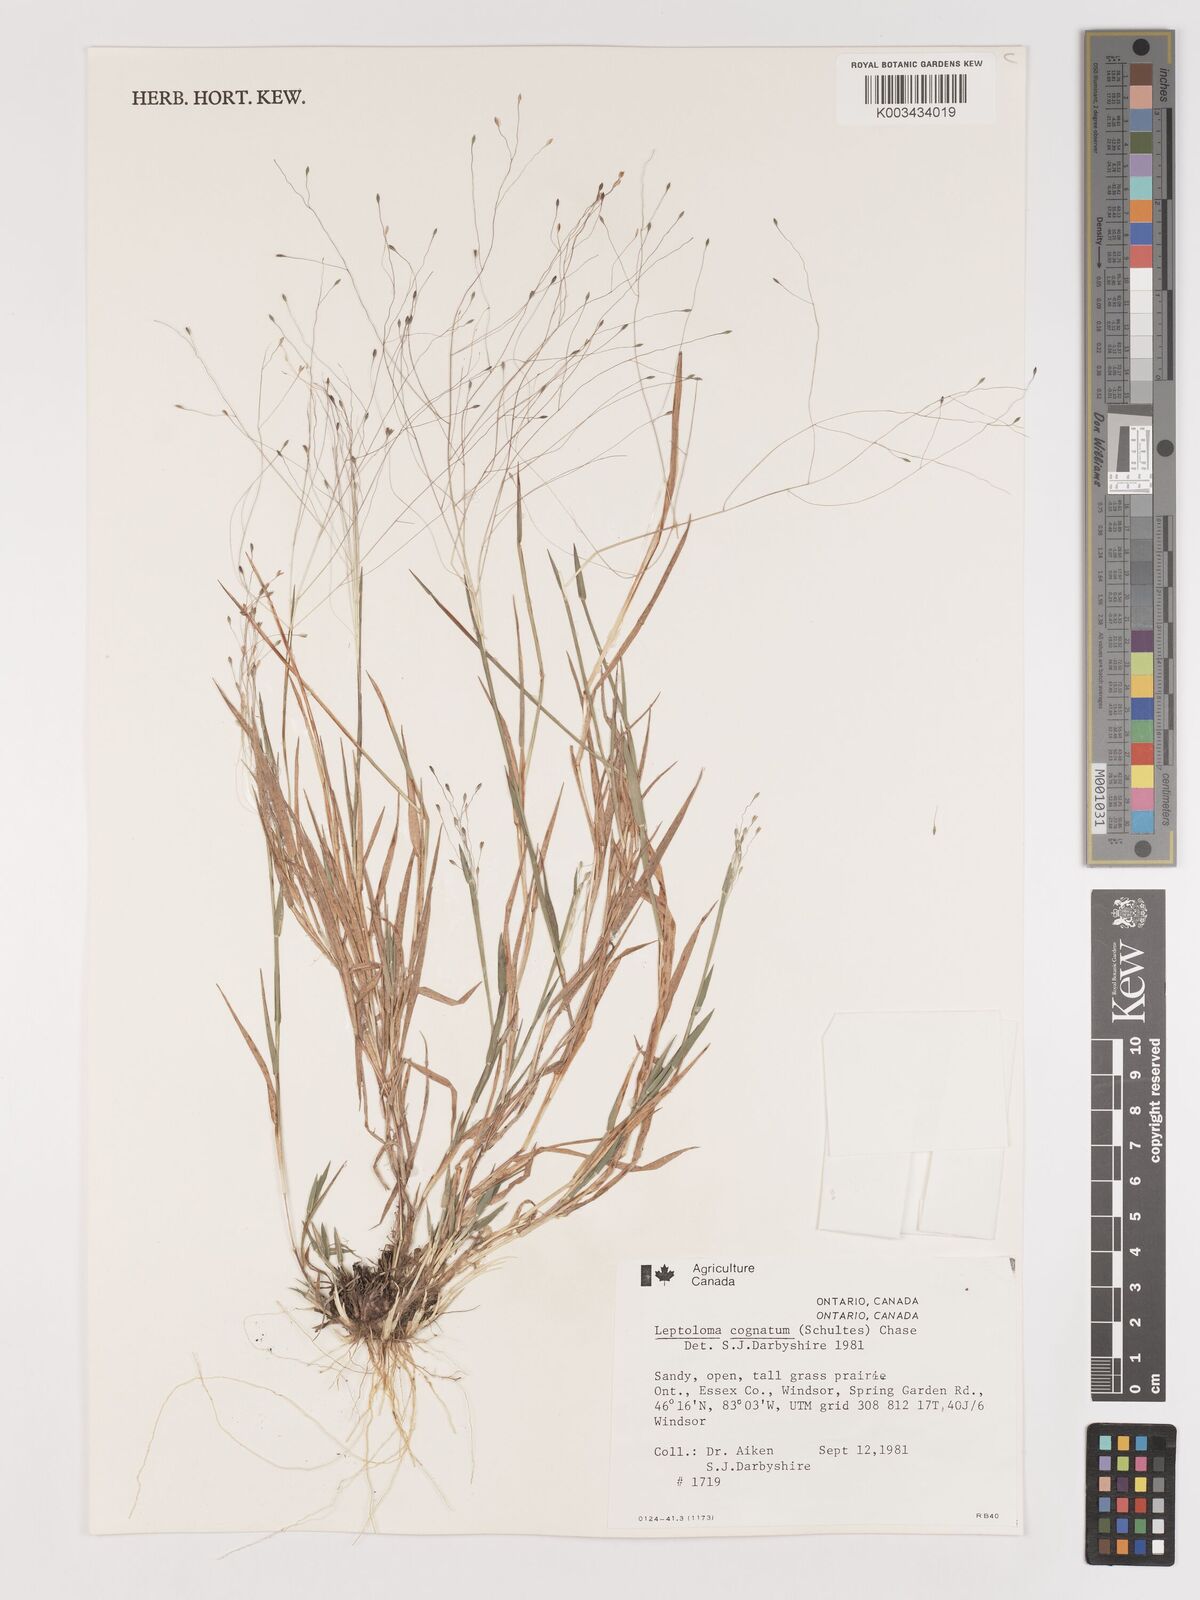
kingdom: Plantae
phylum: Tracheophyta
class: Liliopsida
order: Poales
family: Poaceae
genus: Digitaria
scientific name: Digitaria cognata
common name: Fall witchgrass
